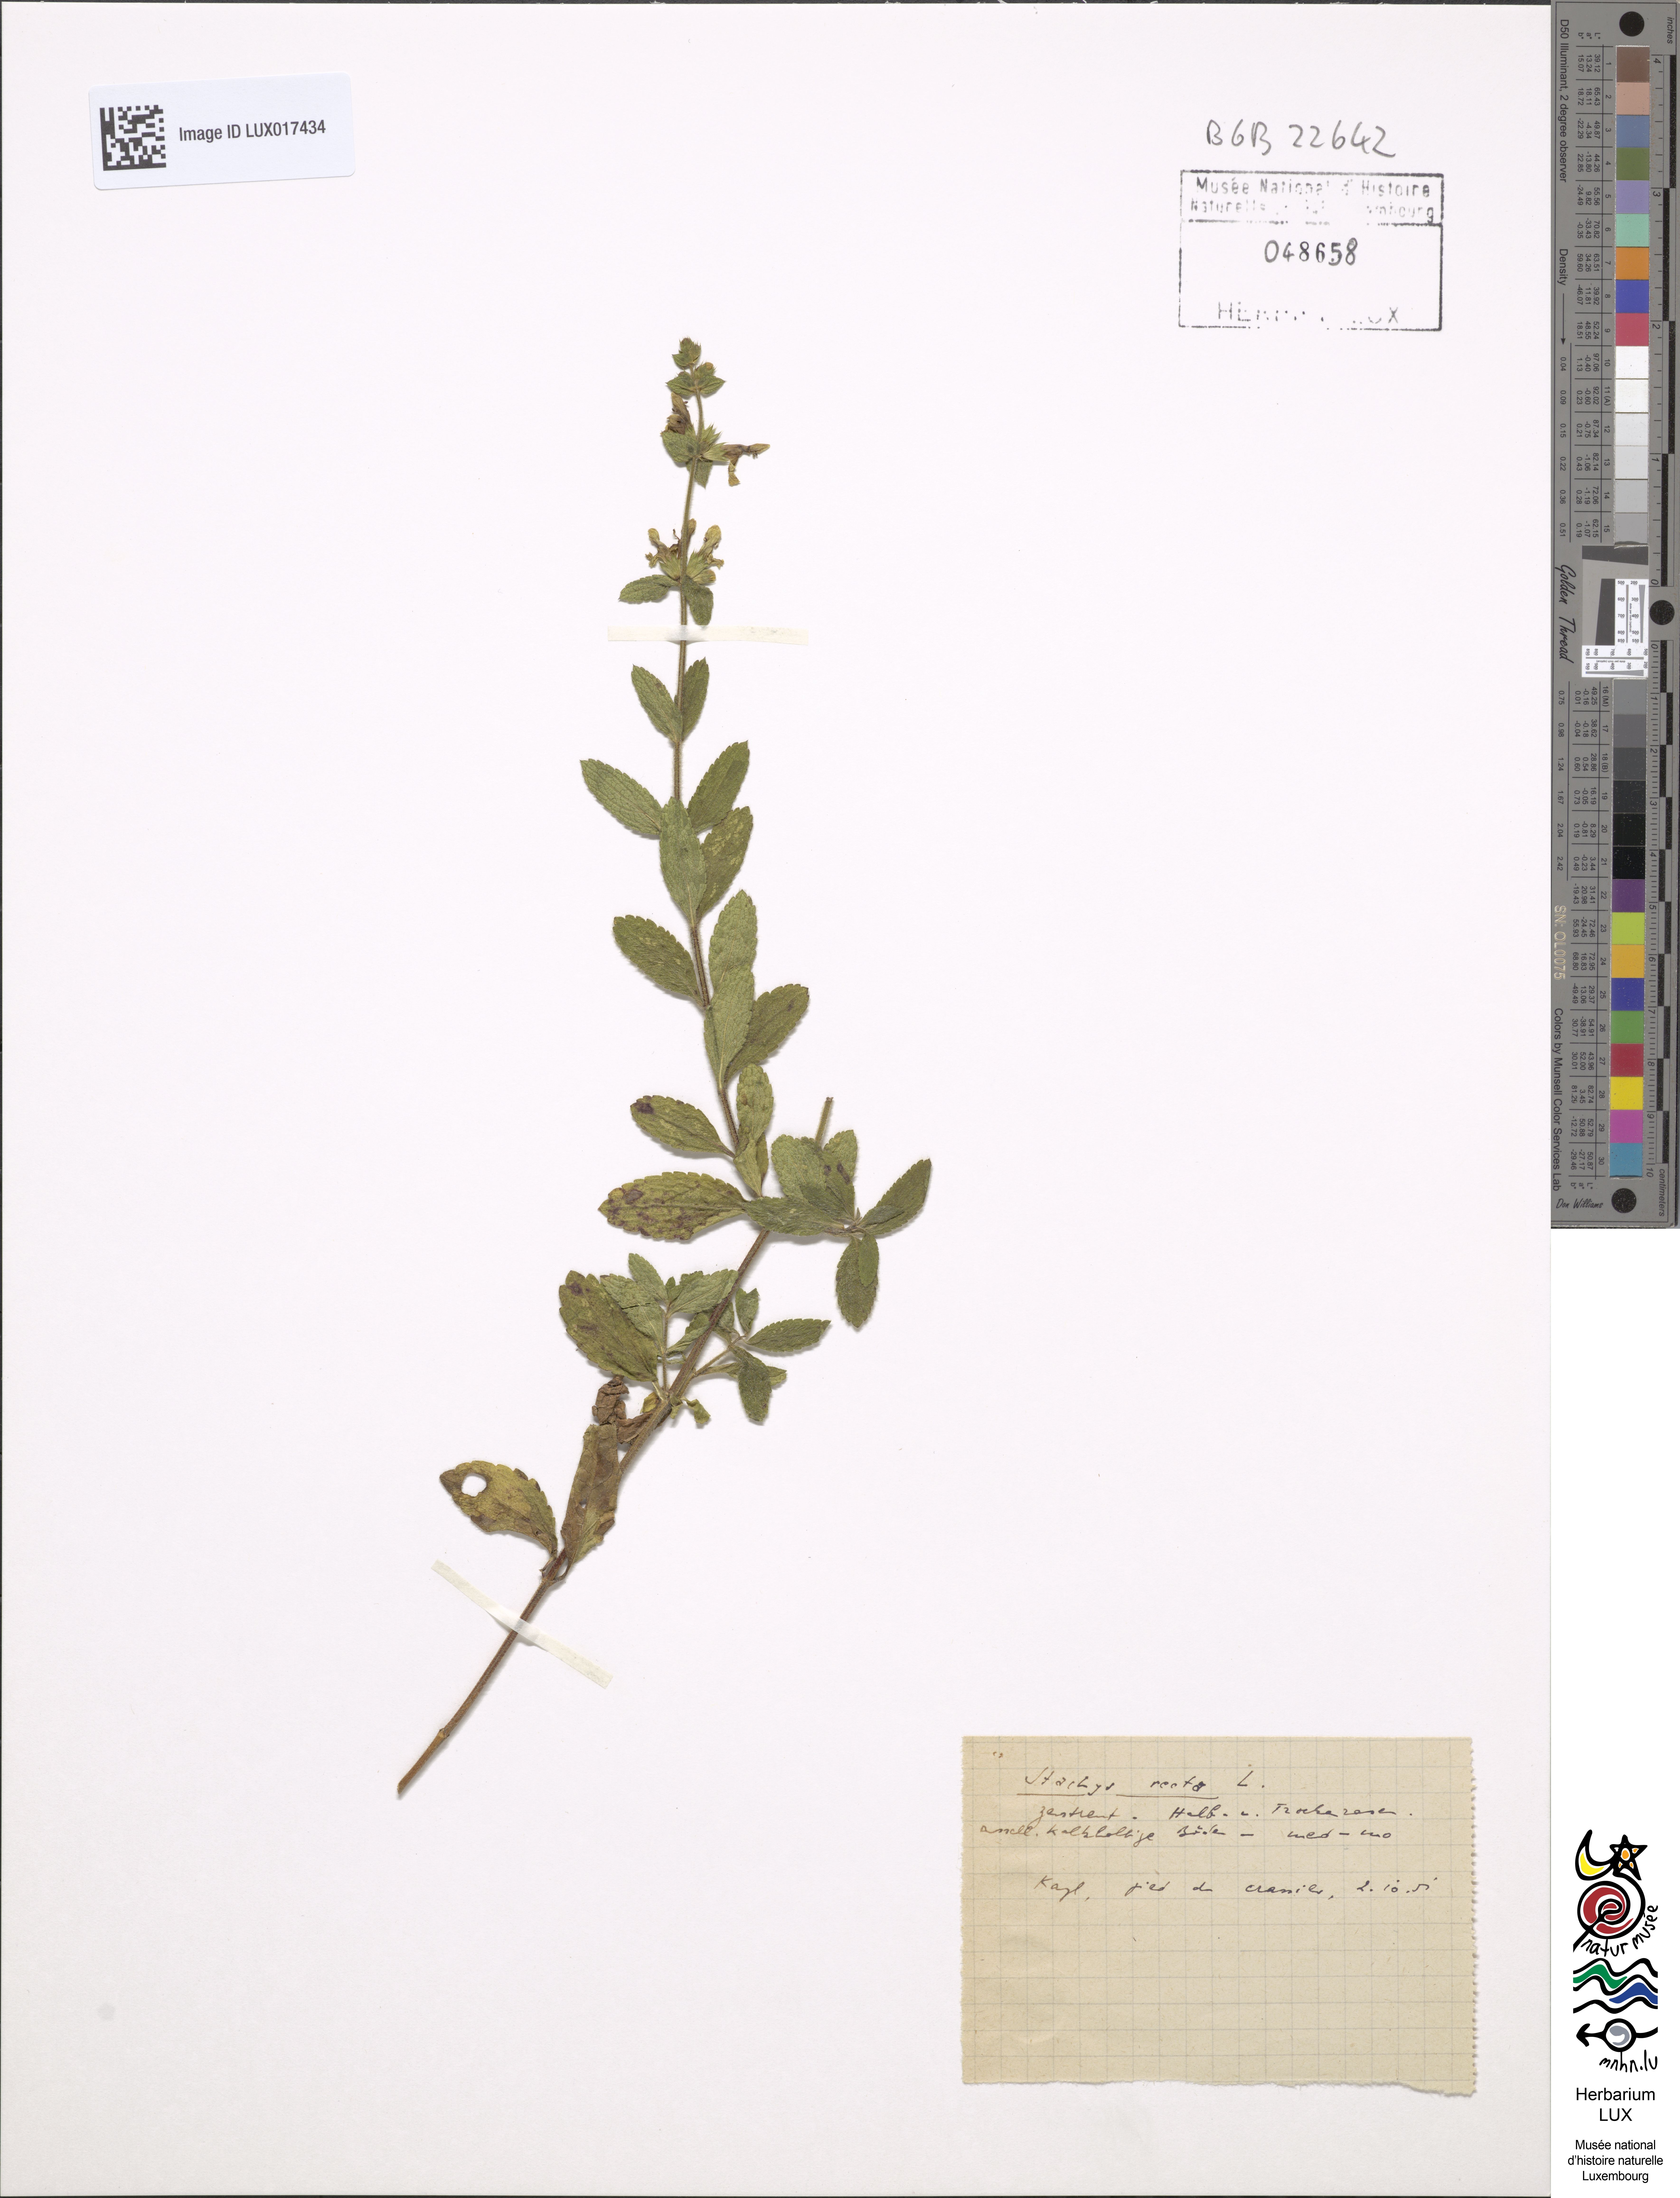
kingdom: Plantae
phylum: Tracheophyta
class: Magnoliopsida
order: Lamiales
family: Lamiaceae
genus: Stachys
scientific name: Stachys recta
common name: Perennial yellow-woundwort
